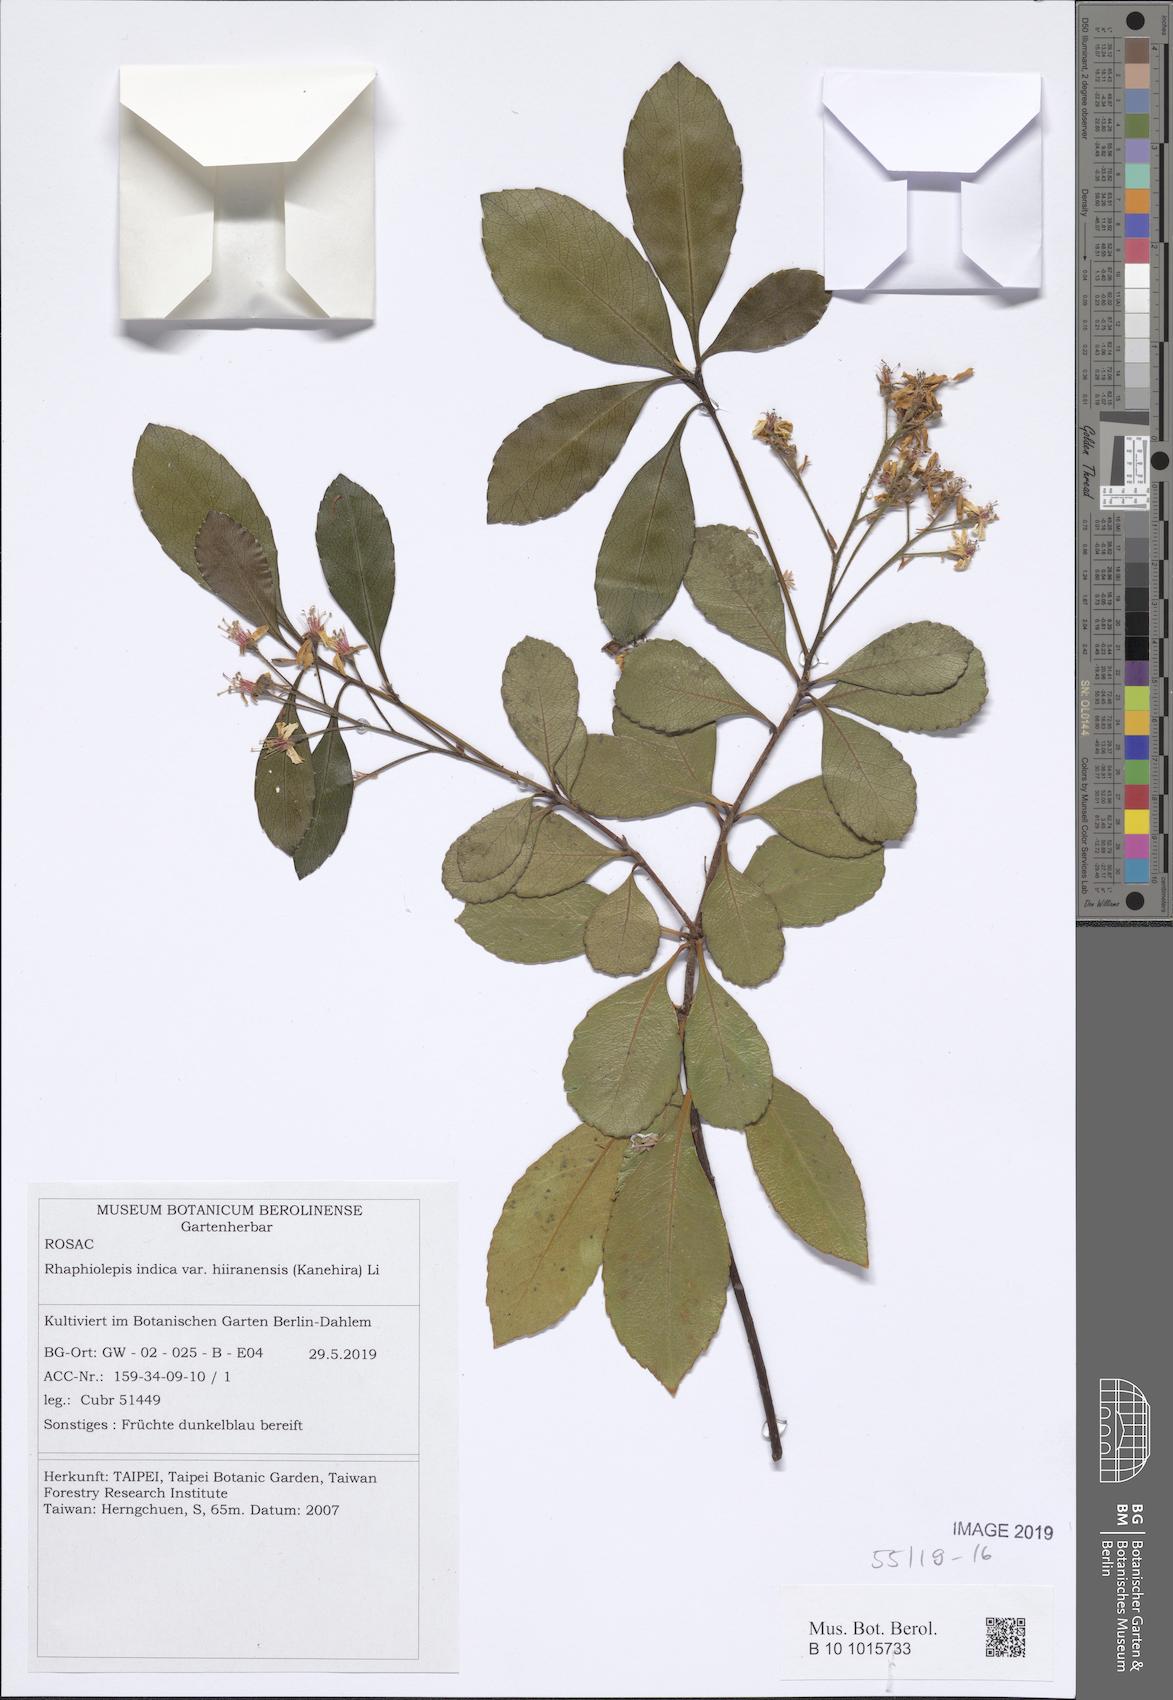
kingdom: Plantae
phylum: Tracheophyta
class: Magnoliopsida
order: Rosales
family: Rosaceae
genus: Rhaphiolepis
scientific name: Rhaphiolepis indica
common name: India-hawthorn
